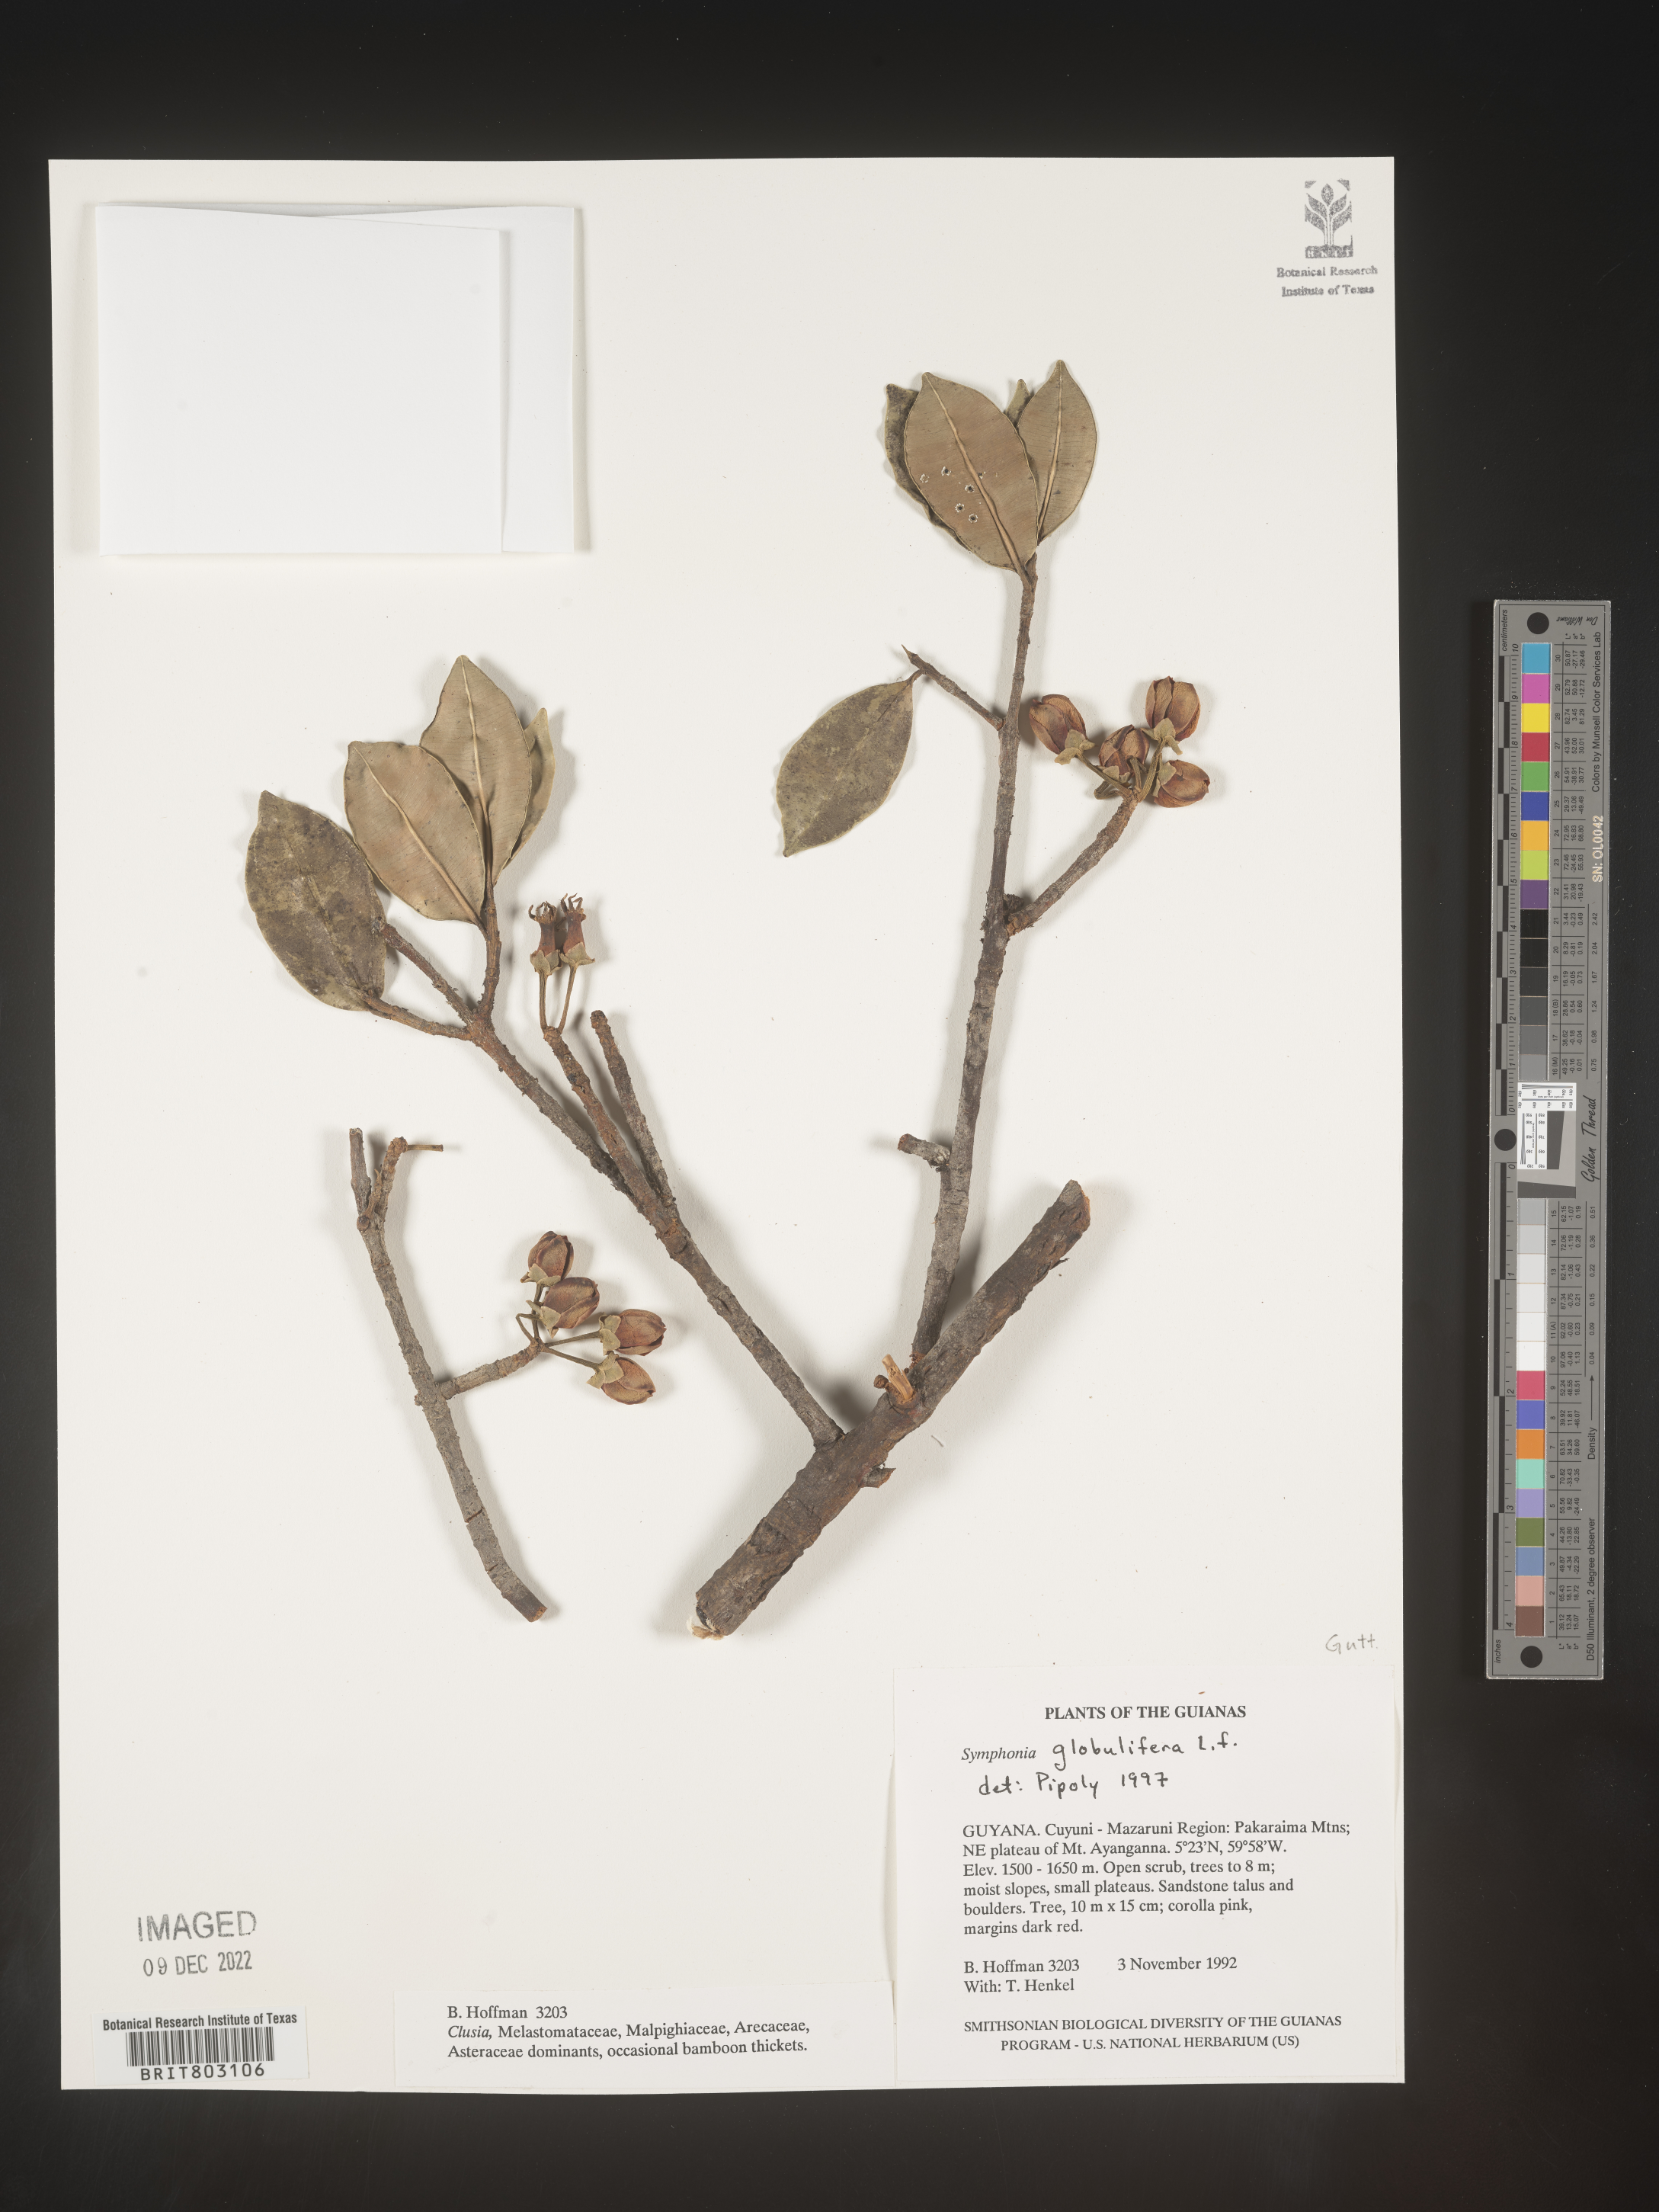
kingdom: Plantae
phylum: Tracheophyta
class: Magnoliopsida
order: Malpighiales
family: Clusiaceae
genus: Symphonia
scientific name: Symphonia
